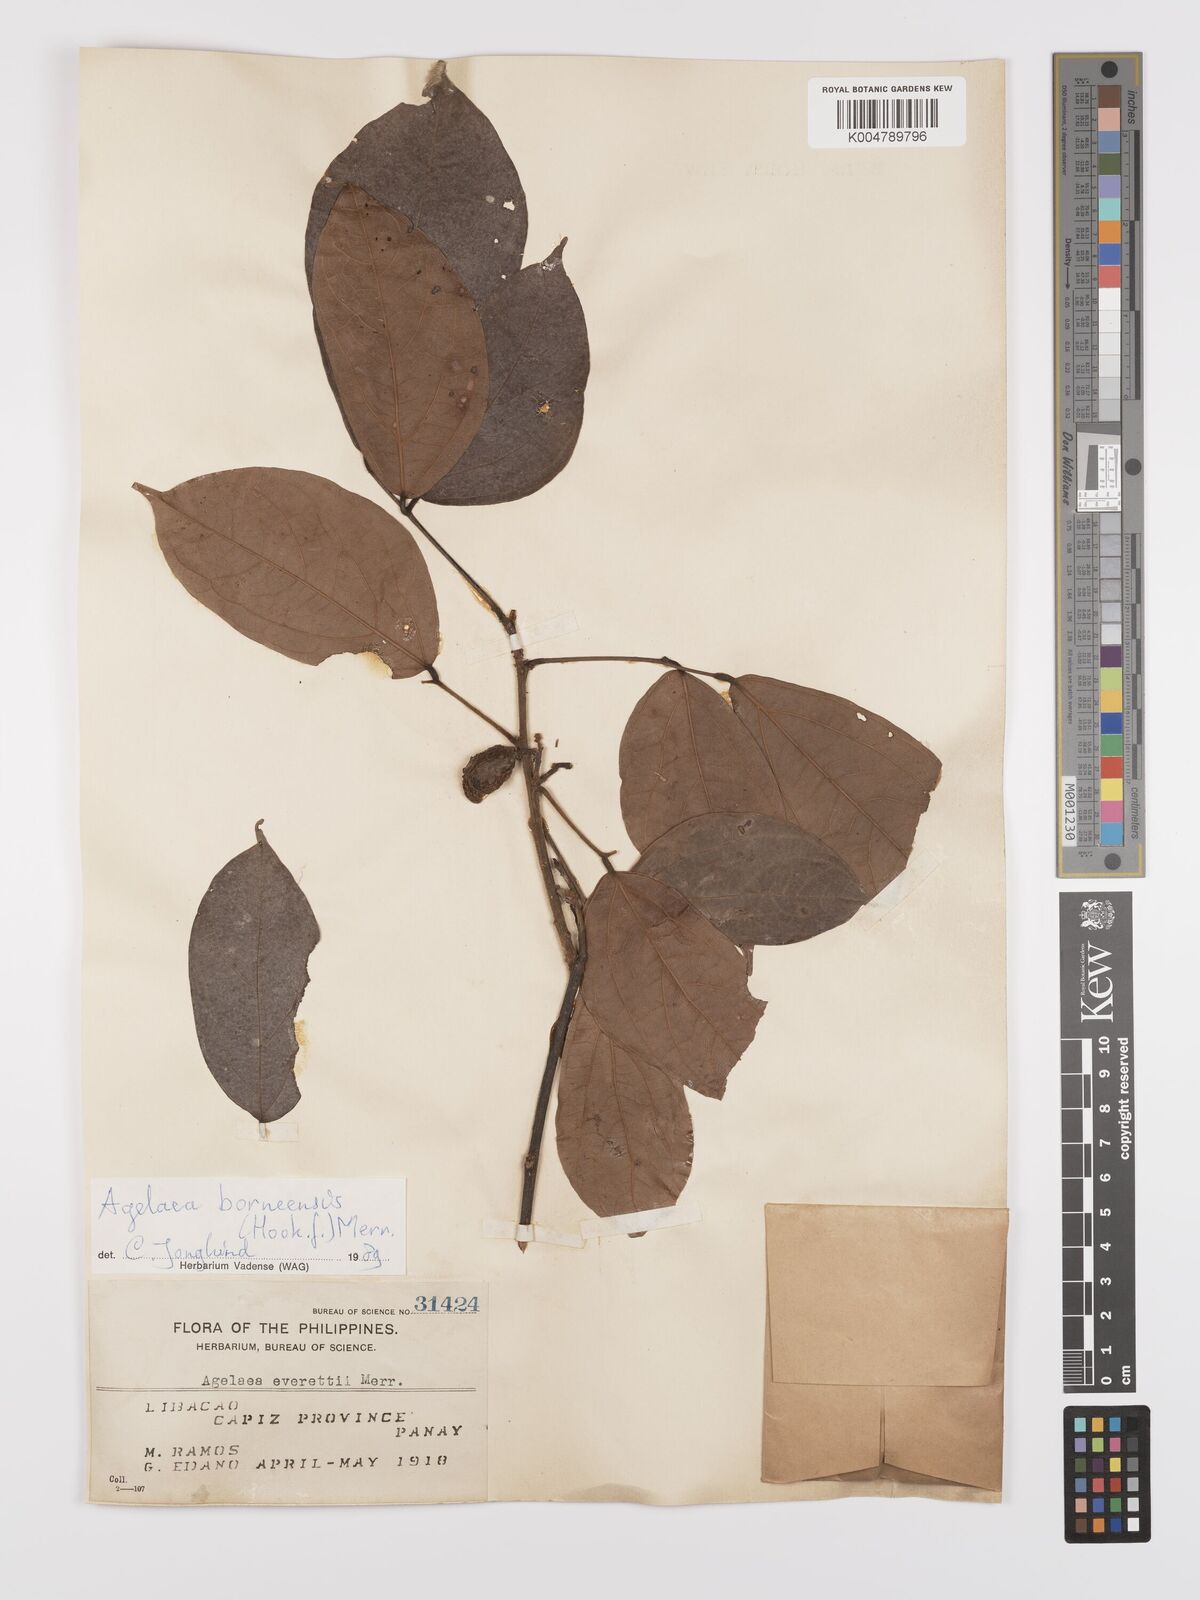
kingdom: Plantae
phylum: Tracheophyta
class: Magnoliopsida
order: Oxalidales
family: Connaraceae
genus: Agelaea
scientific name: Agelaea borneensis
